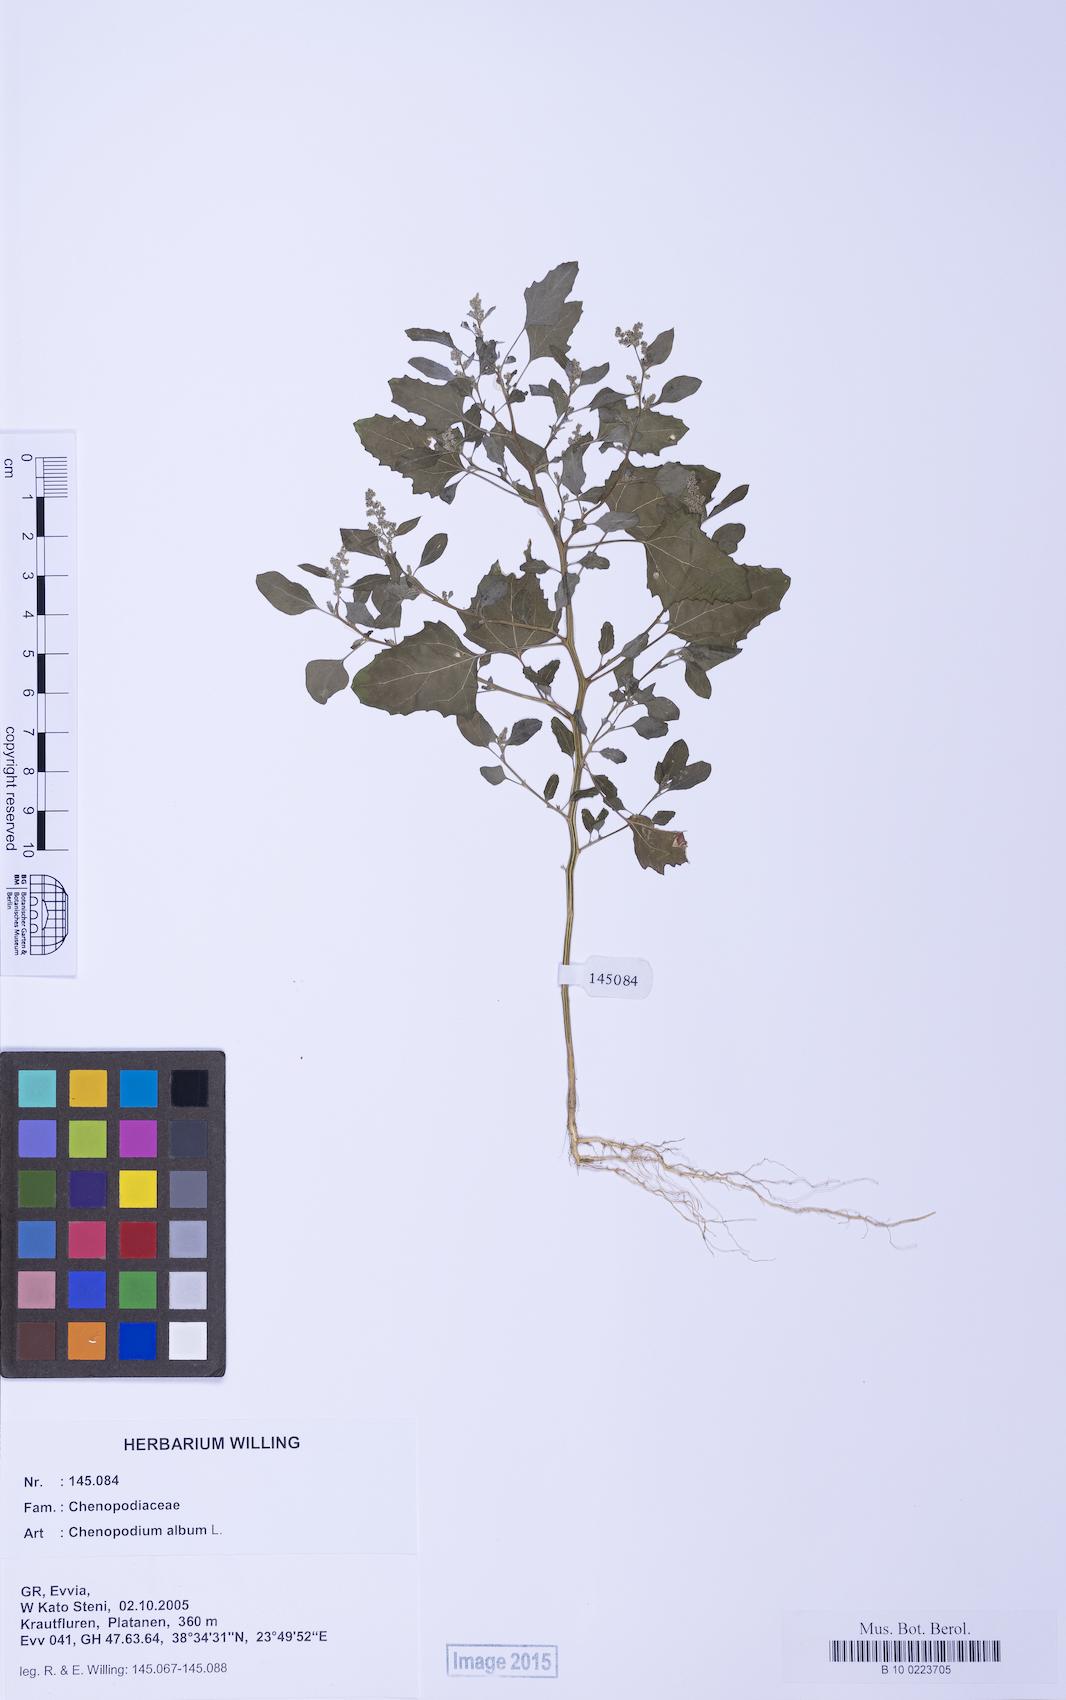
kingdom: Plantae
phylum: Tracheophyta
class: Magnoliopsida
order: Caryophyllales
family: Amaranthaceae
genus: Chenopodium
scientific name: Chenopodium album
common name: Fat-hen
